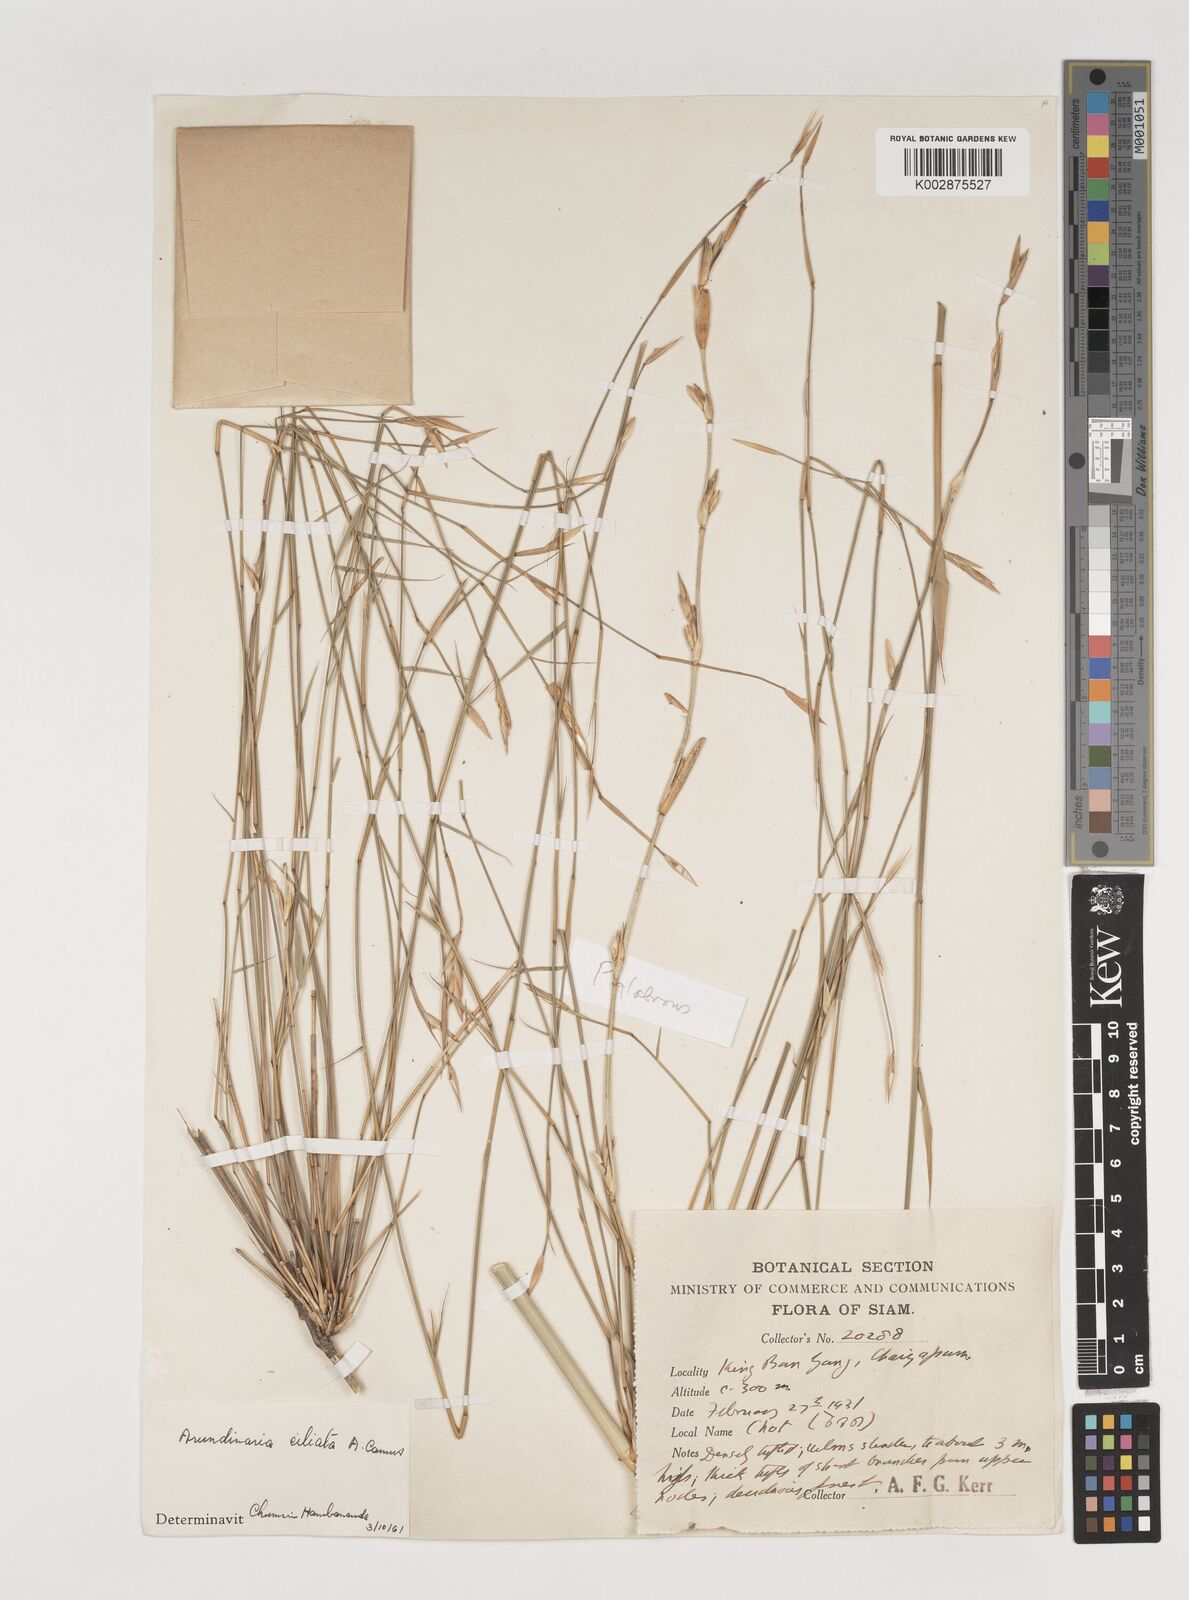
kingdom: Plantae
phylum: Tracheophyta
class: Liliopsida
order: Poales
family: Poaceae
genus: Vietnamosasa
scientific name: Vietnamosasa
